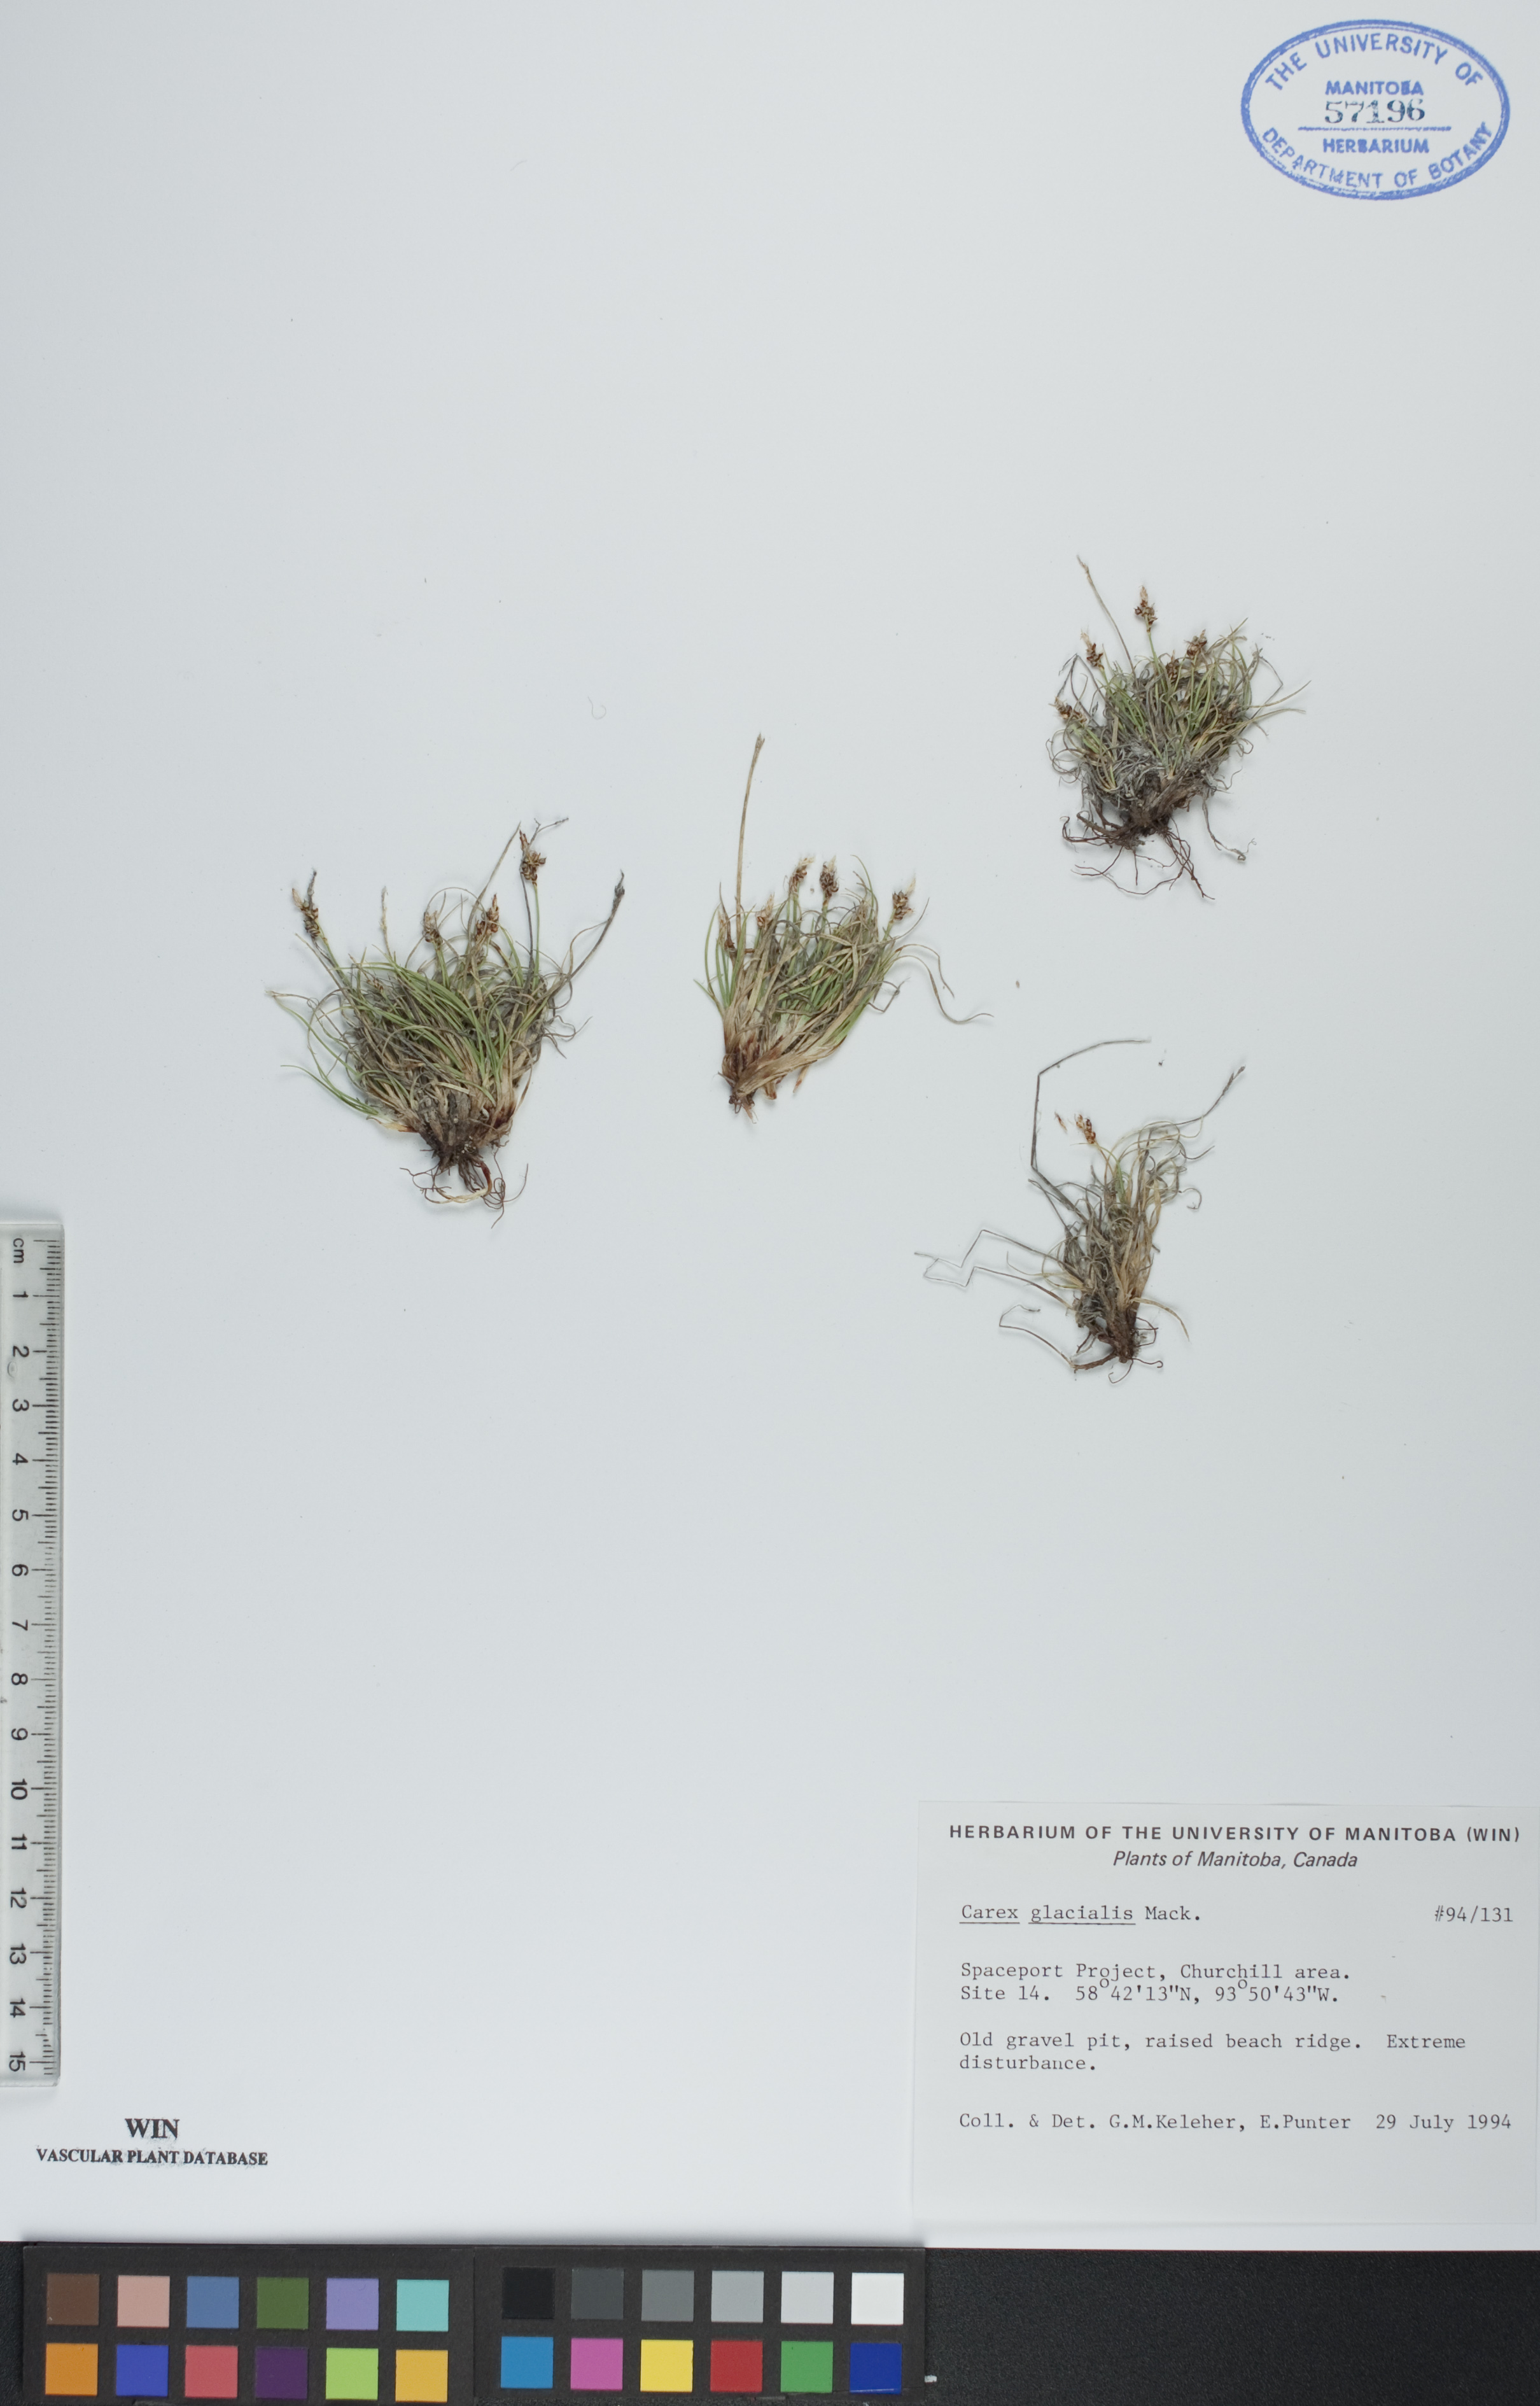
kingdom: Plantae
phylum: Tracheophyta
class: Liliopsida
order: Poales
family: Cyperaceae
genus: Carex
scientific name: Carex glacialis
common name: Newfoundland sedge
